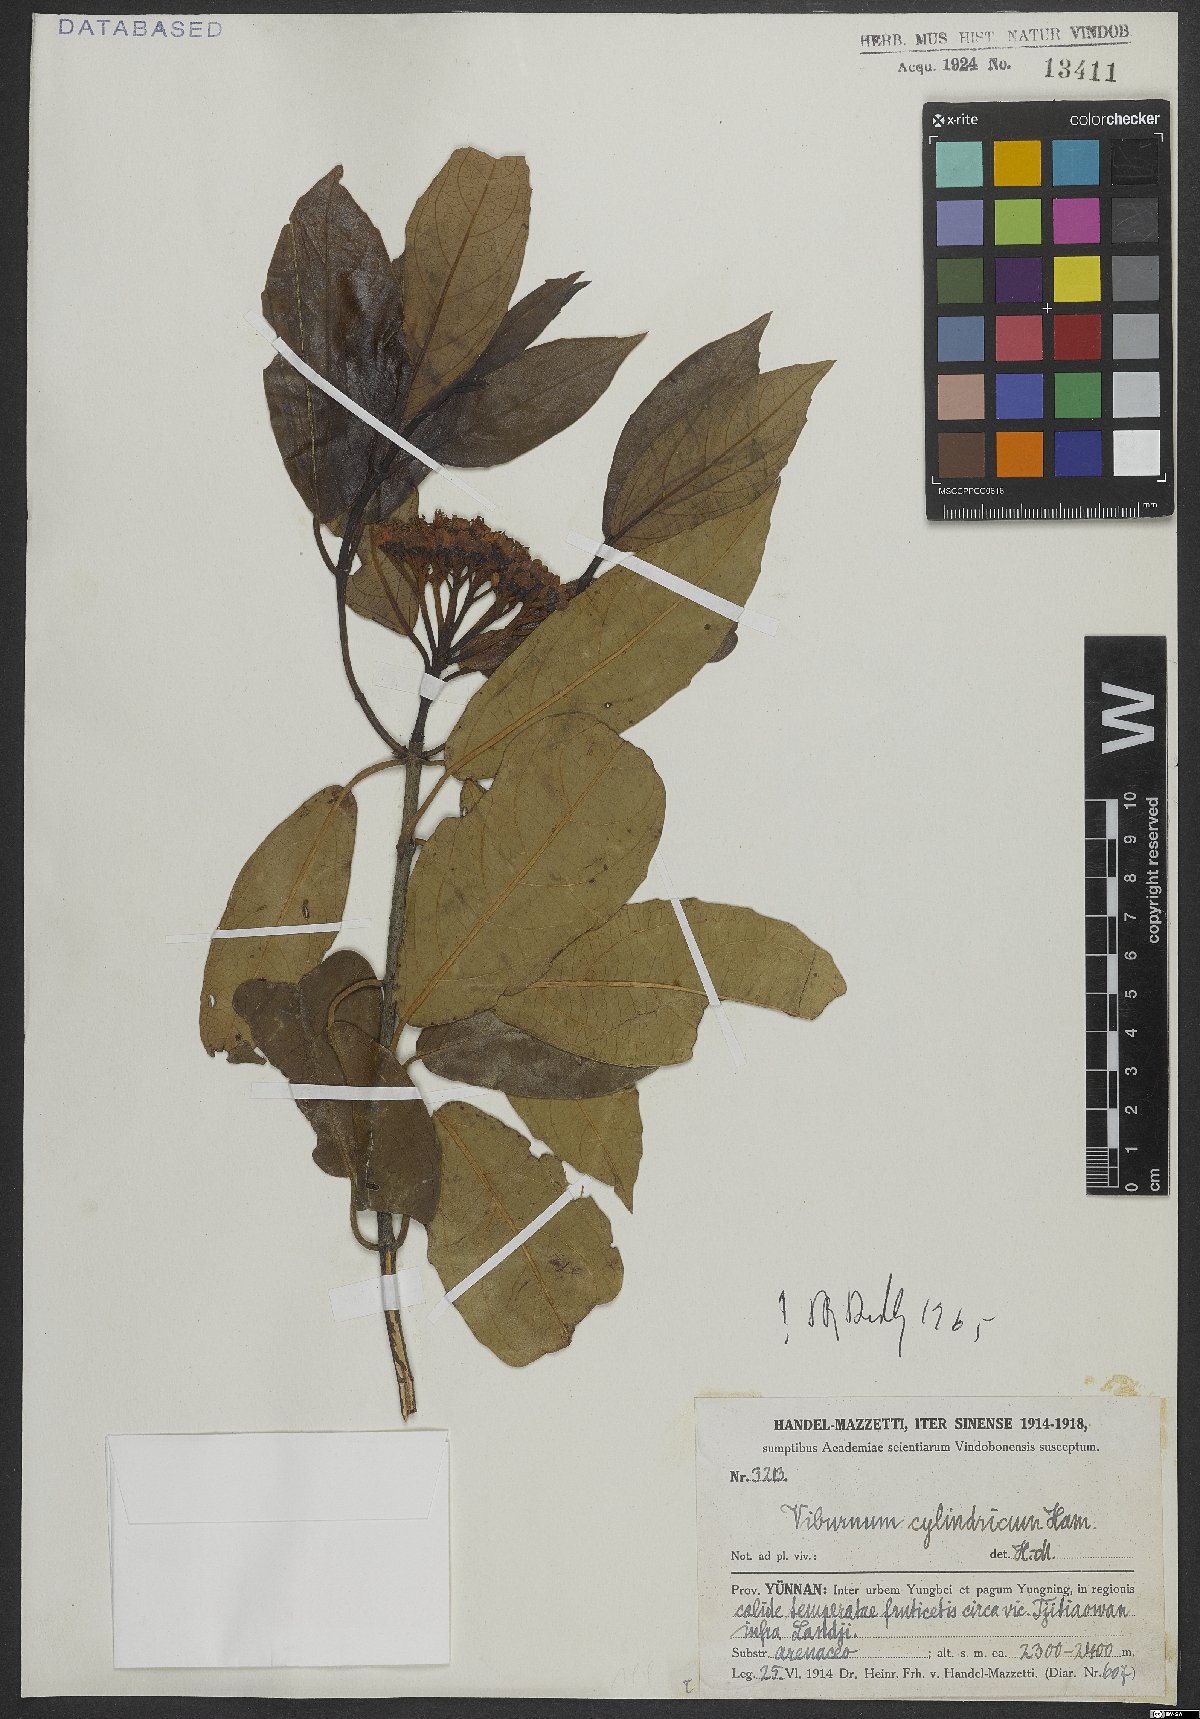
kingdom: Plantae
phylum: Tracheophyta
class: Magnoliopsida
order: Dipsacales
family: Viburnaceae
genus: Viburnum
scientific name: Viburnum cylindricum
